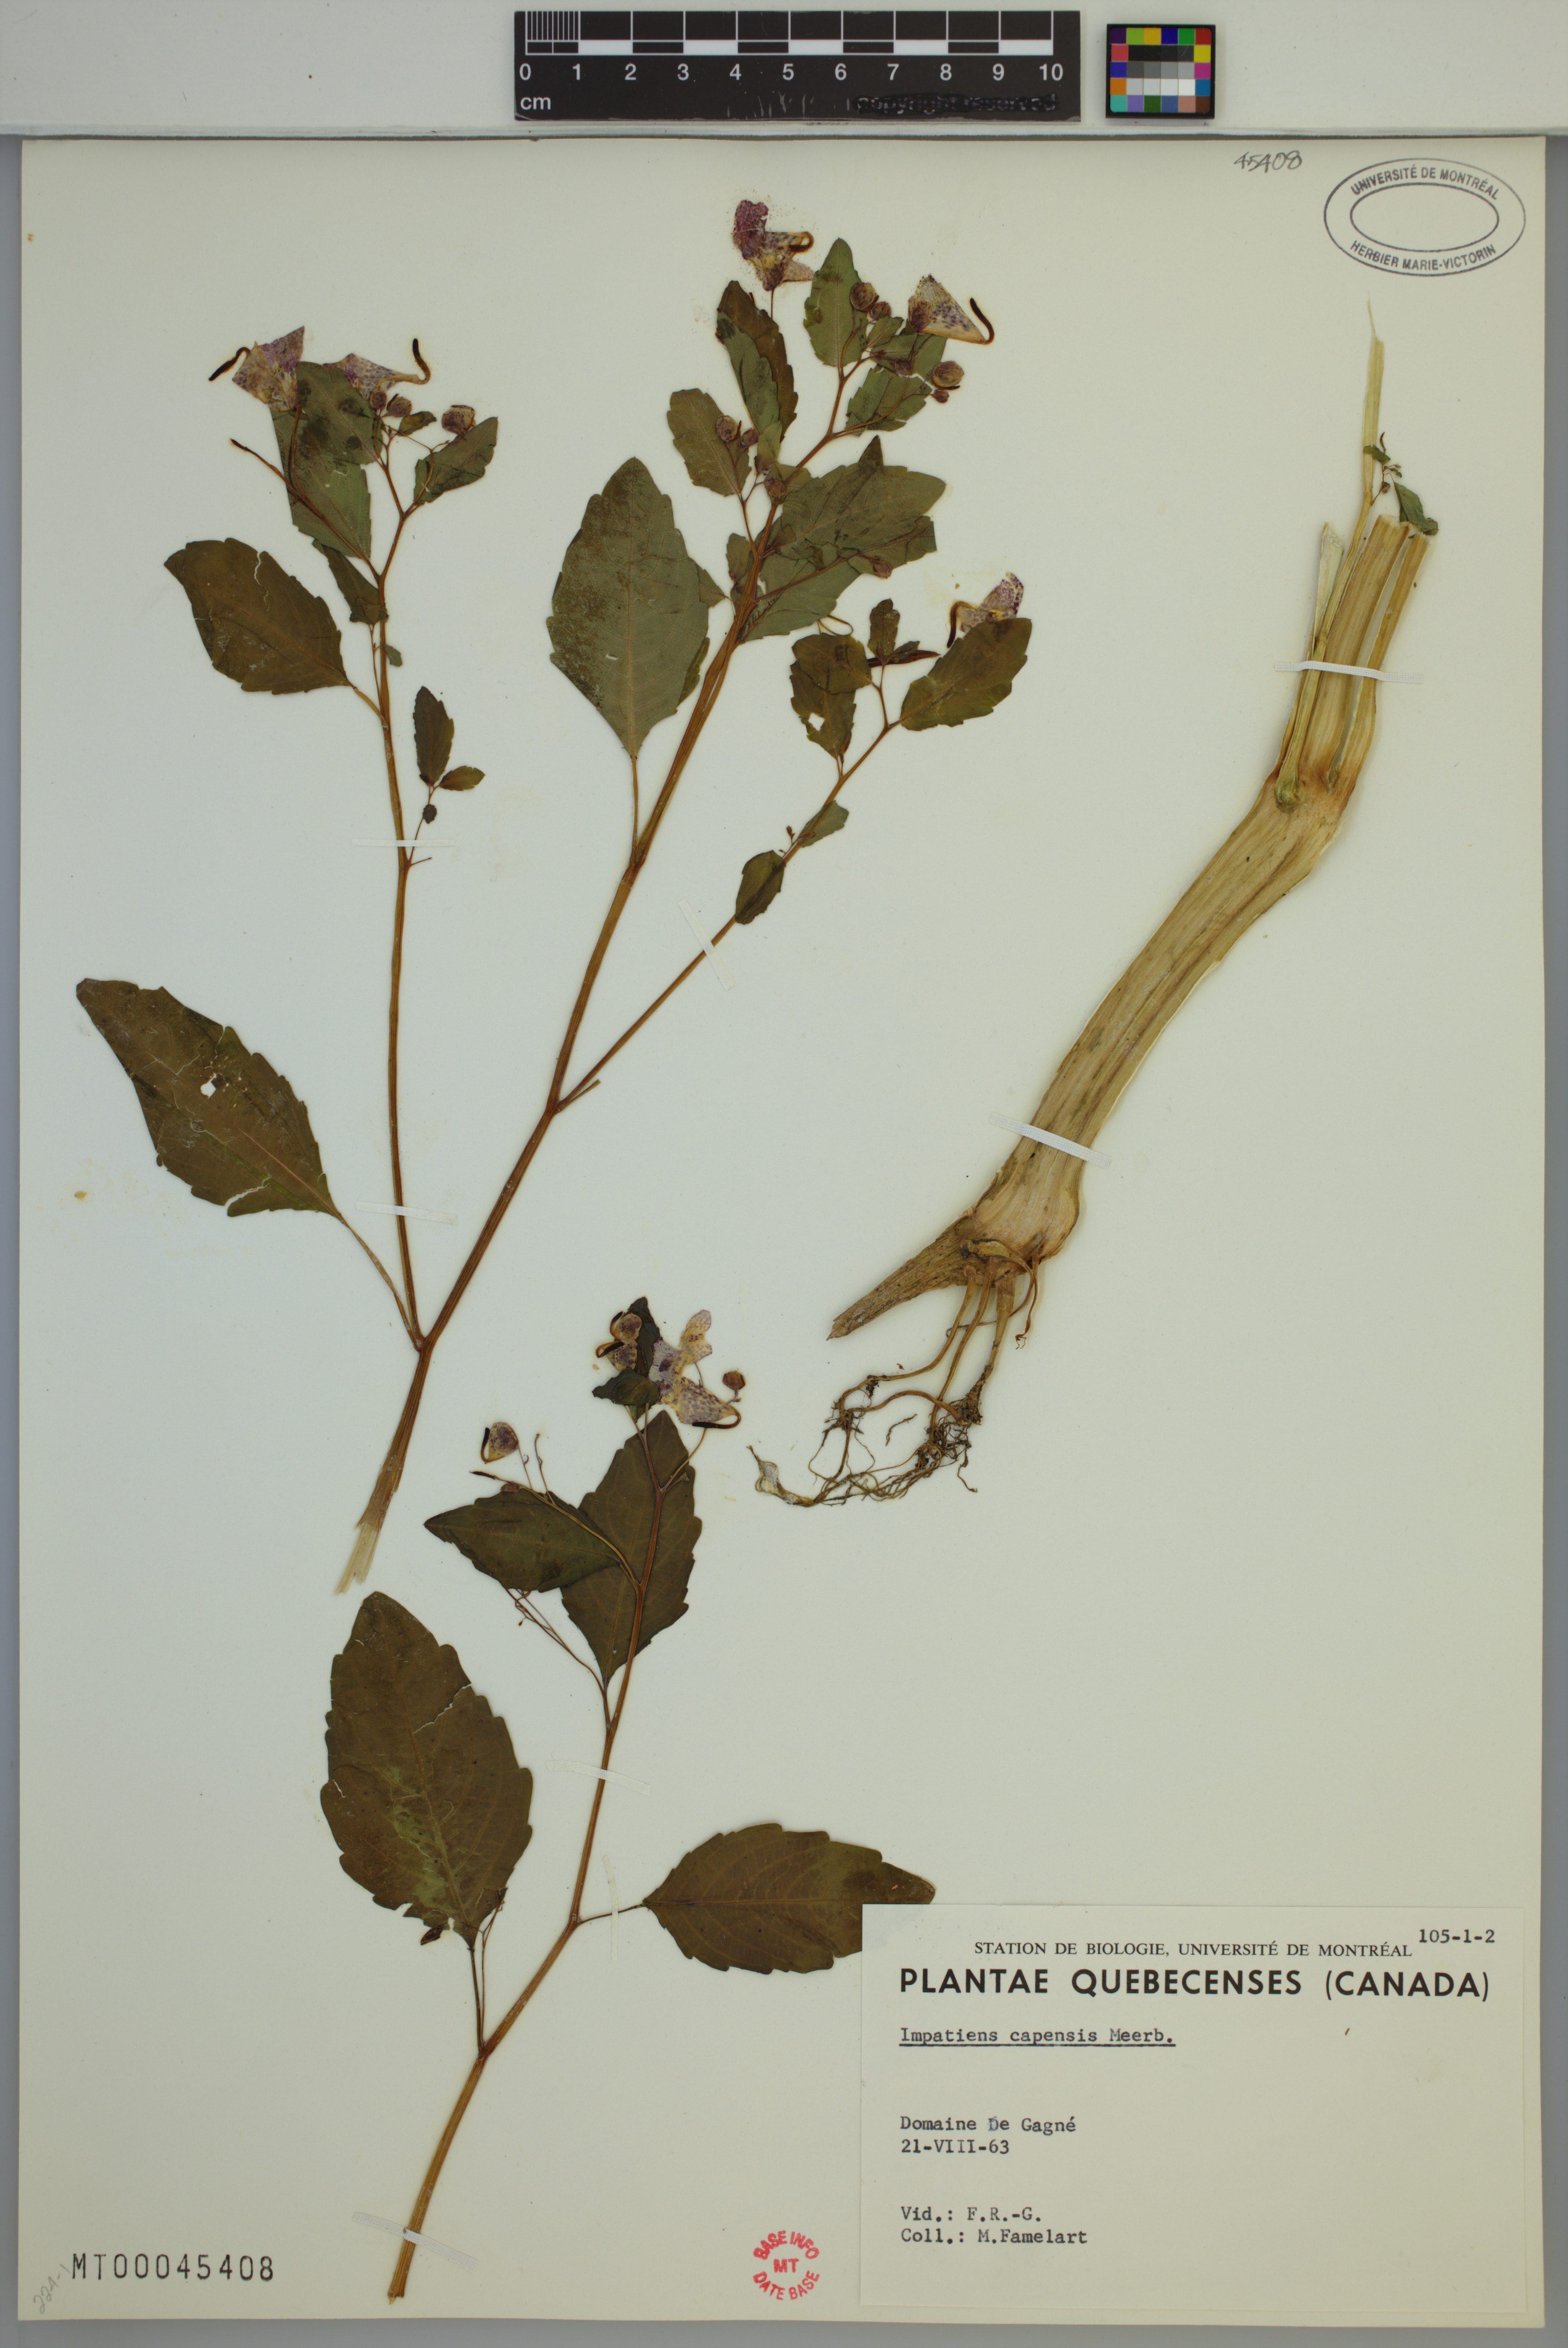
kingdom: Plantae
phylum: Tracheophyta
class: Magnoliopsida
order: Ericales
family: Balsaminaceae
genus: Impatiens
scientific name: Impatiens capensis
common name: Orange balsam
